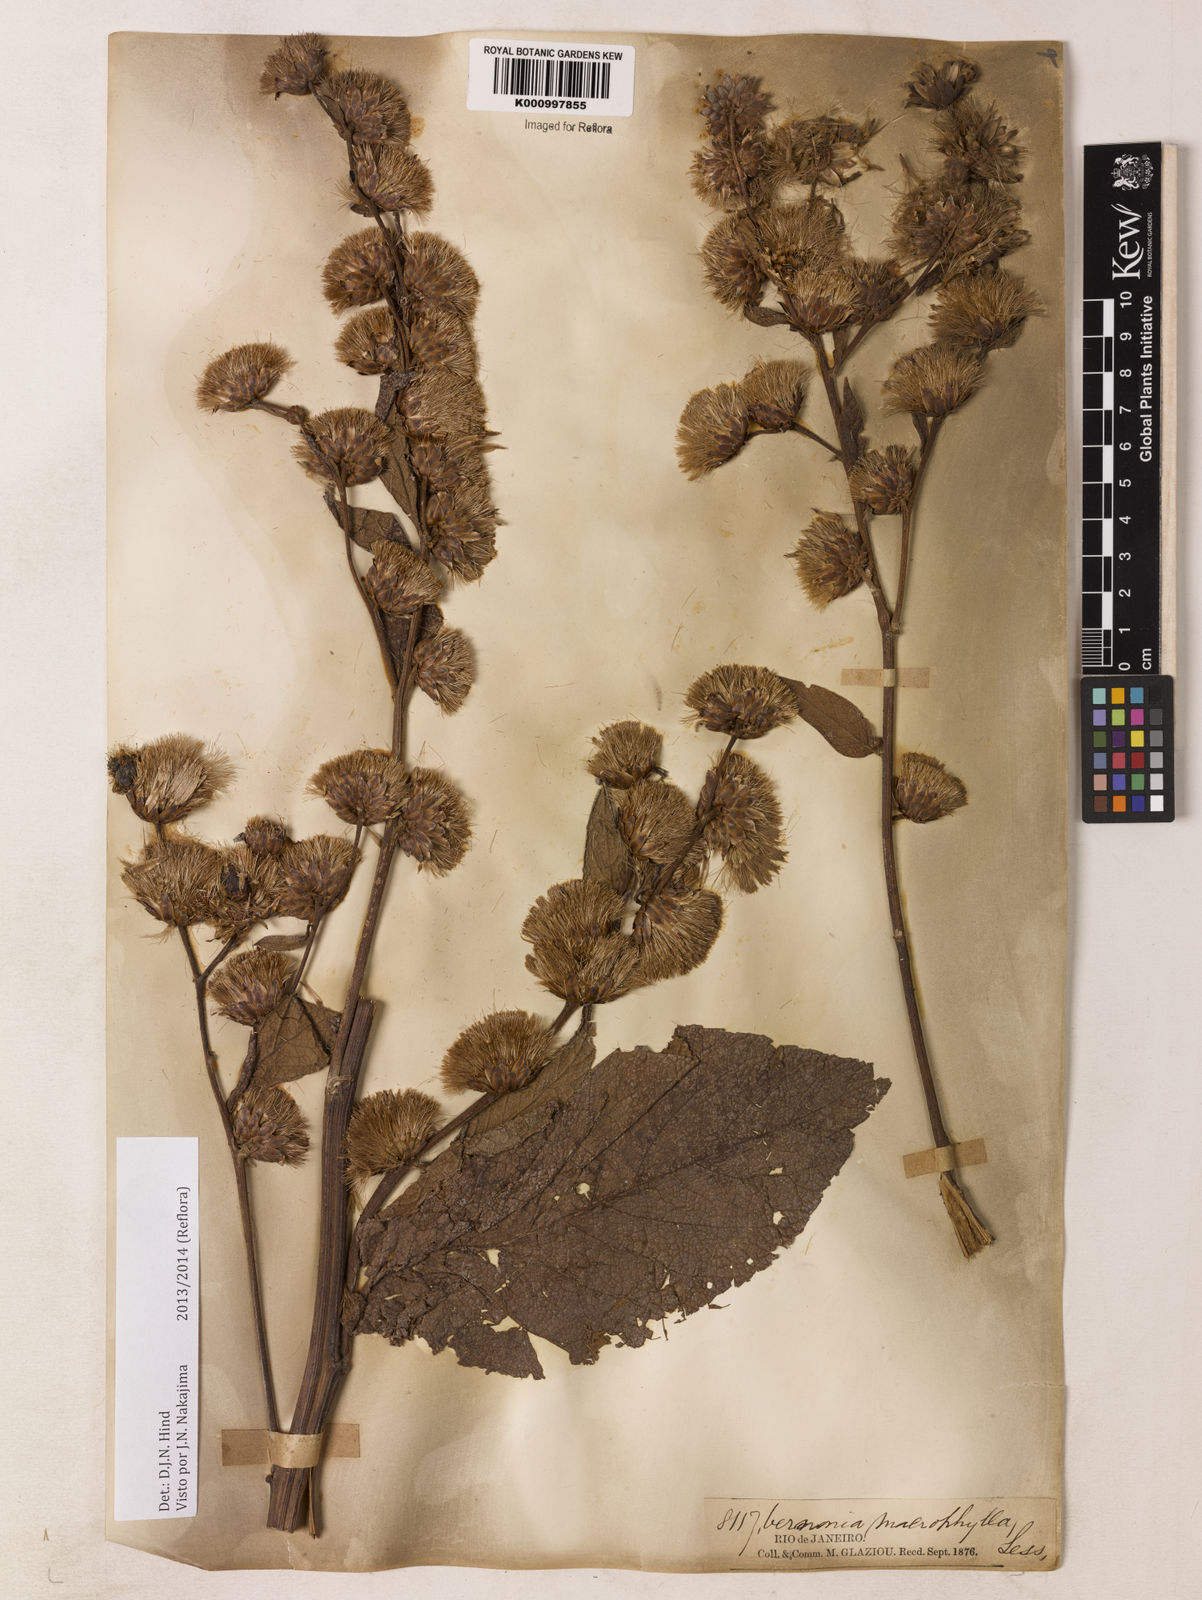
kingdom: Plantae
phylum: Tracheophyta
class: Magnoliopsida
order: Asterales
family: Asteraceae
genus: Lessingianthus
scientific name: Lessingianthus macrophyllus
